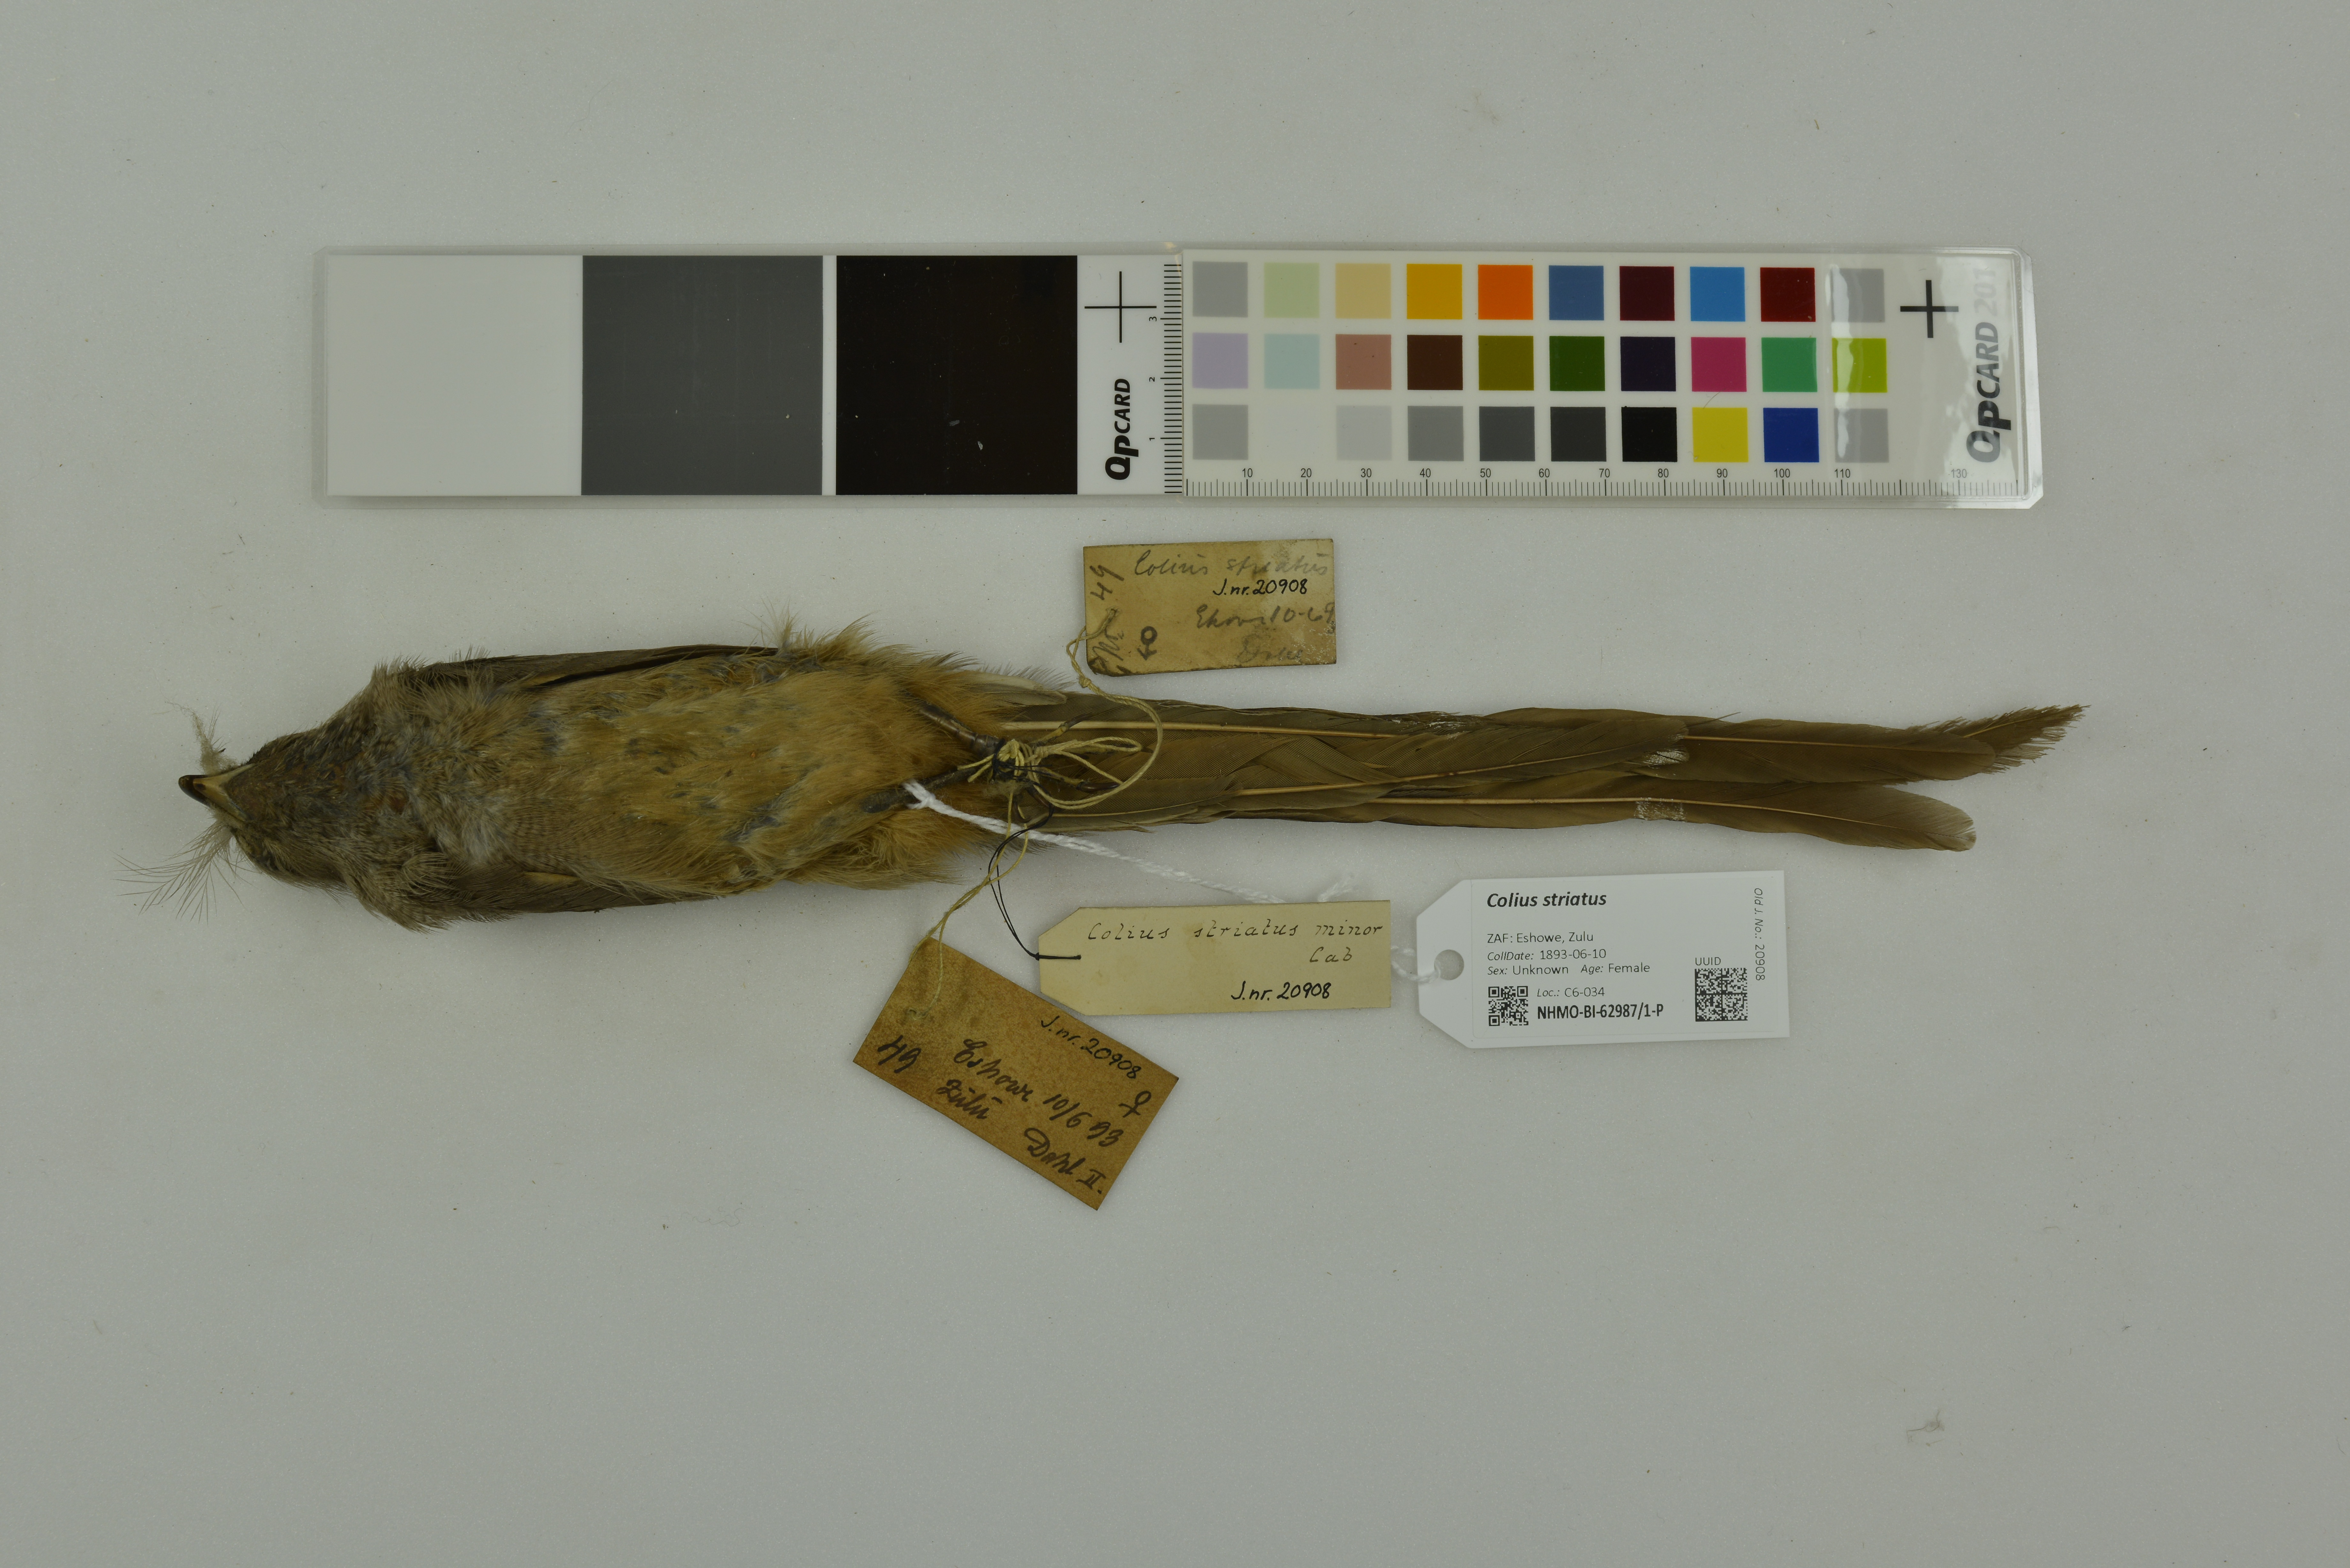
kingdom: Animalia
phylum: Chordata
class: Aves
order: Coliiformes
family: Coliidae
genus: Colius
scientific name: Colius striatus
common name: Speckled mousebird
